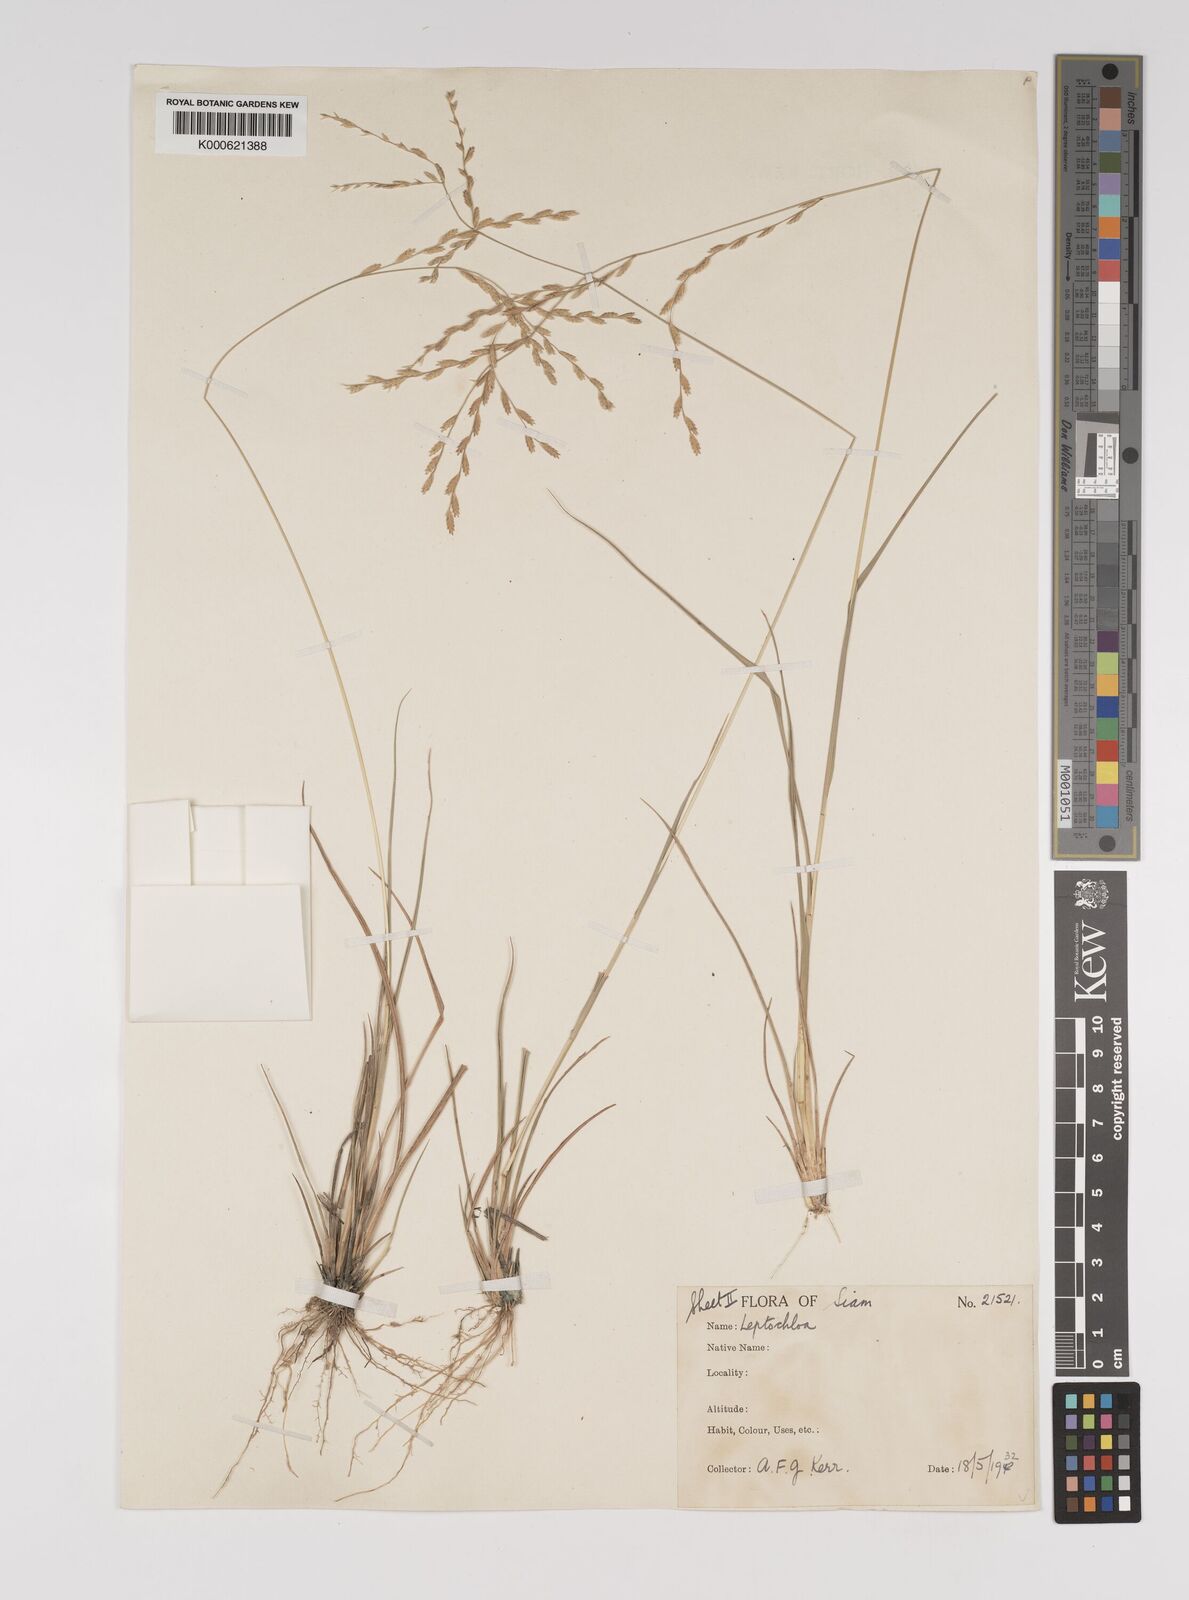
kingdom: Plantae
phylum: Tracheophyta
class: Liliopsida
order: Poales
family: Poaceae
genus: Leptochloa
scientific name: Leptochloa malayana
